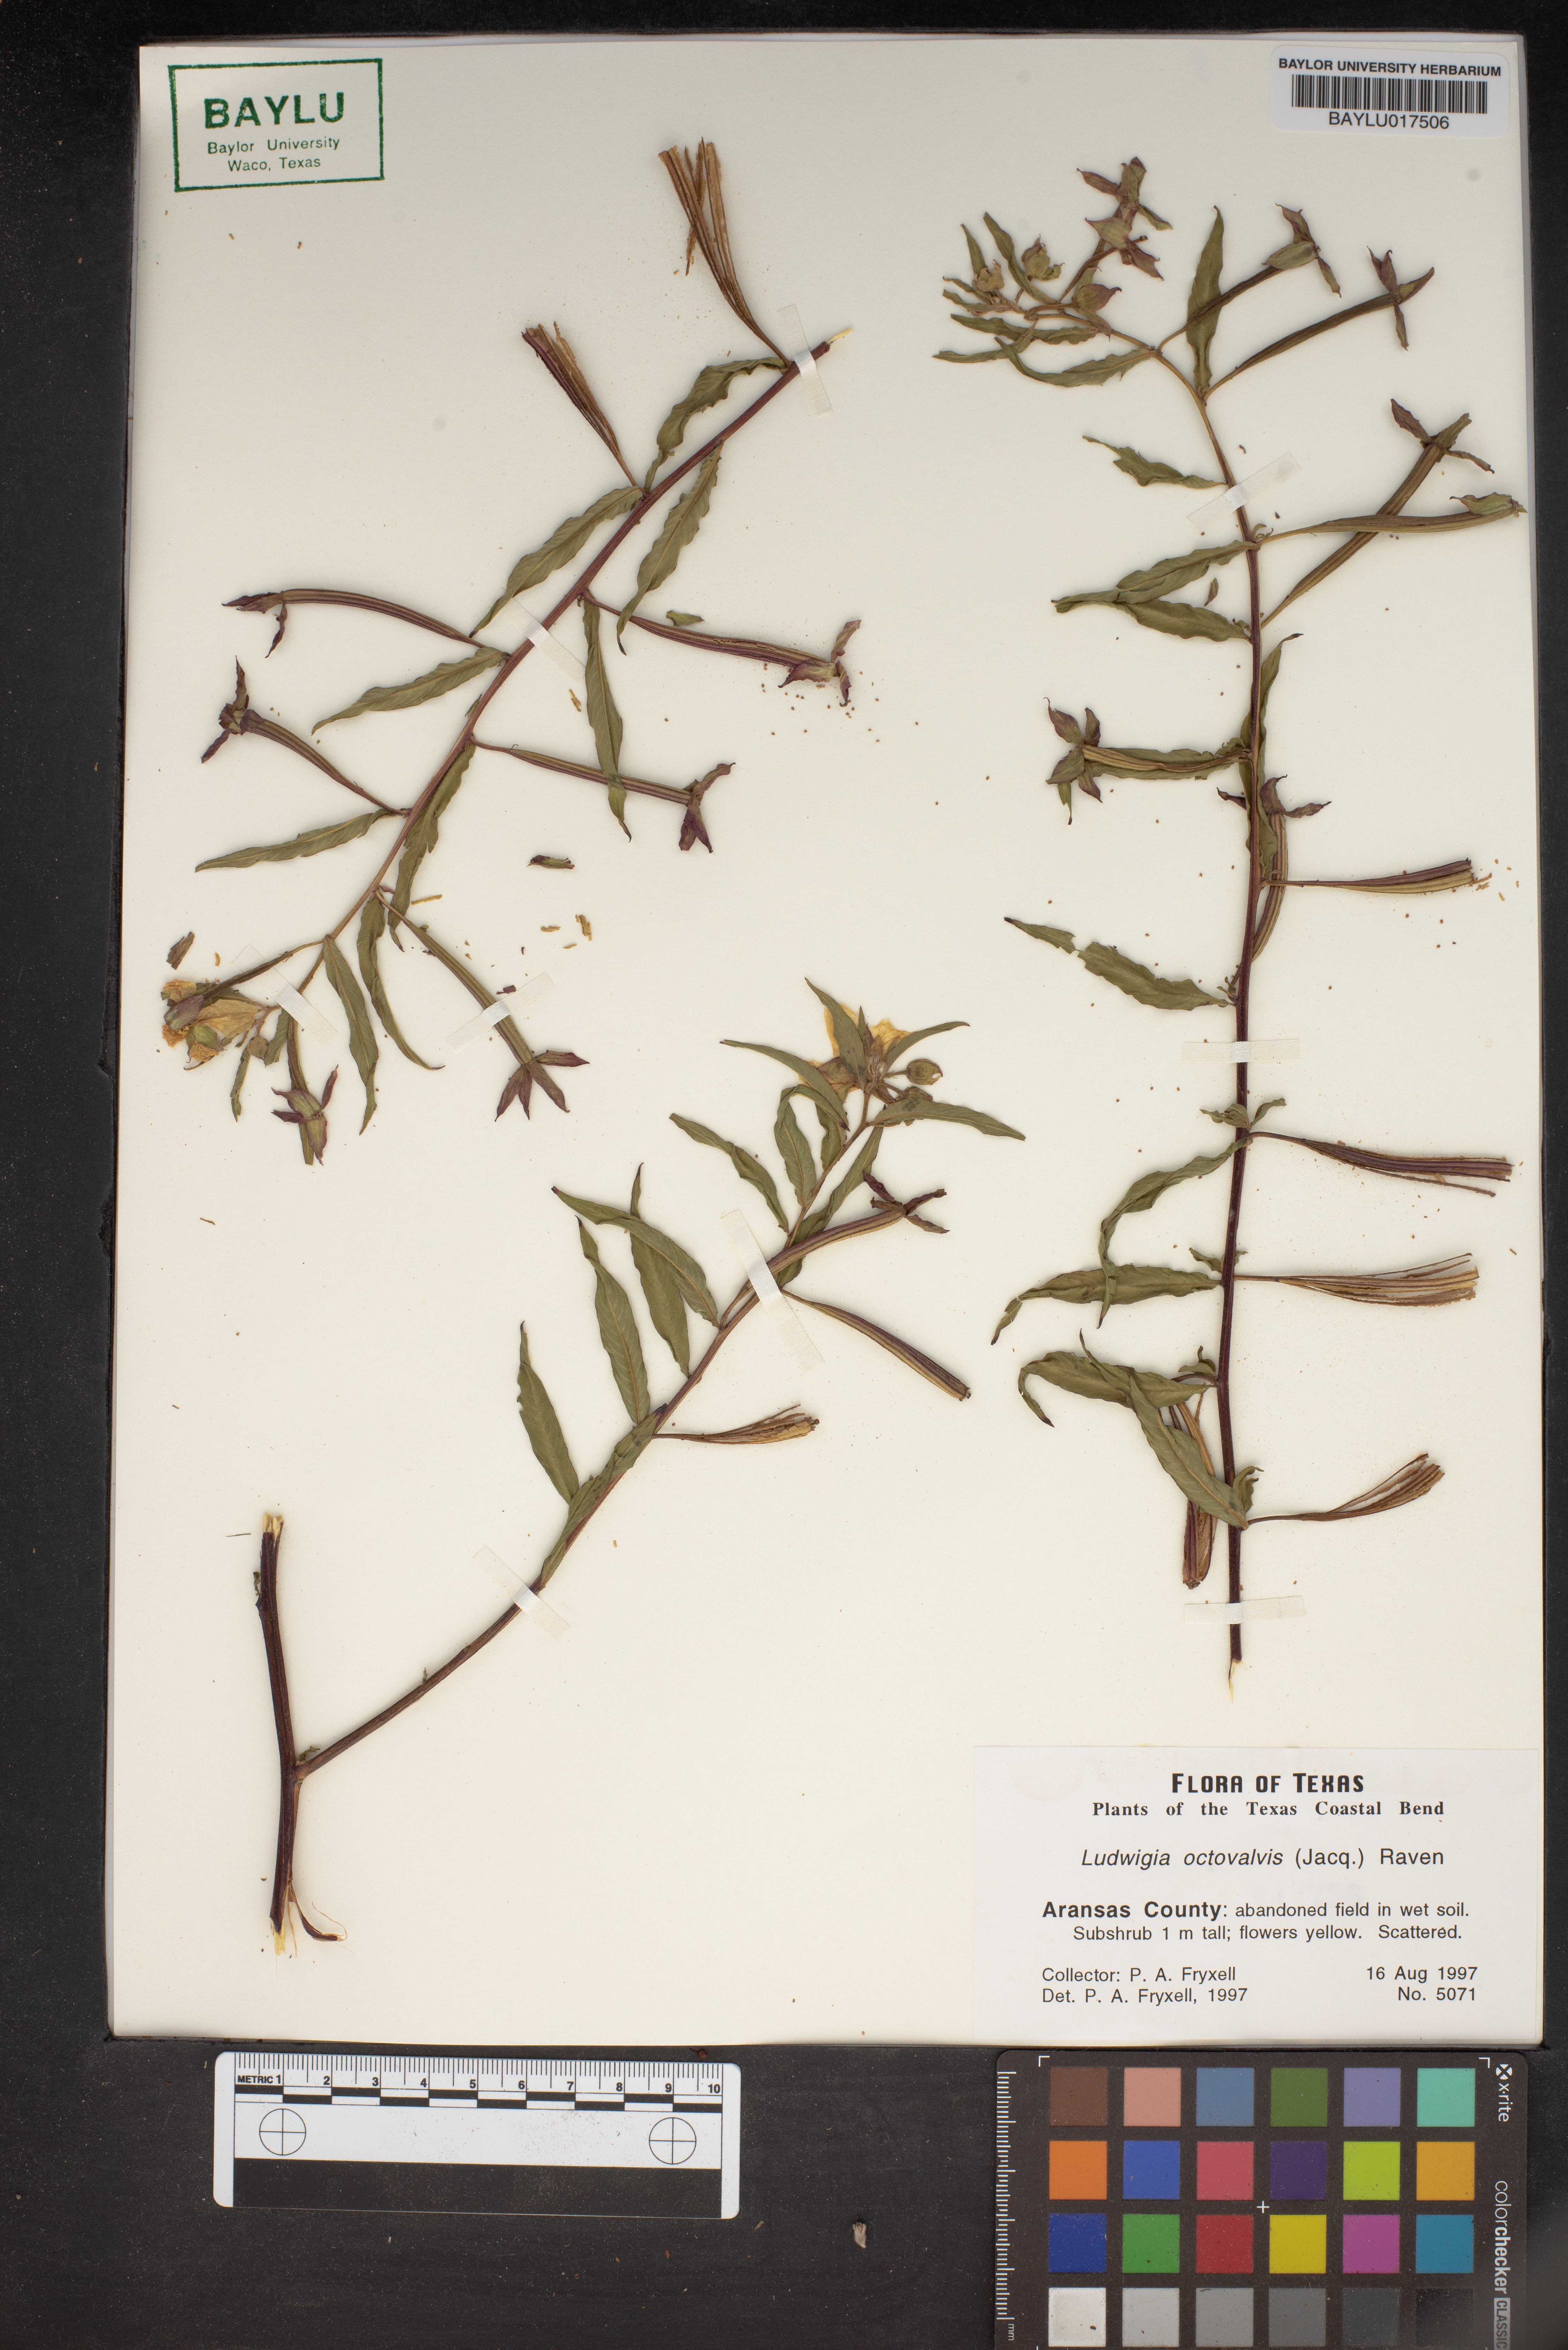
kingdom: Plantae
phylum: Tracheophyta
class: Magnoliopsida
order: Myrtales
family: Onagraceae
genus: Ludwigia
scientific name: Ludwigia octovalvis
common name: Water-primrose
